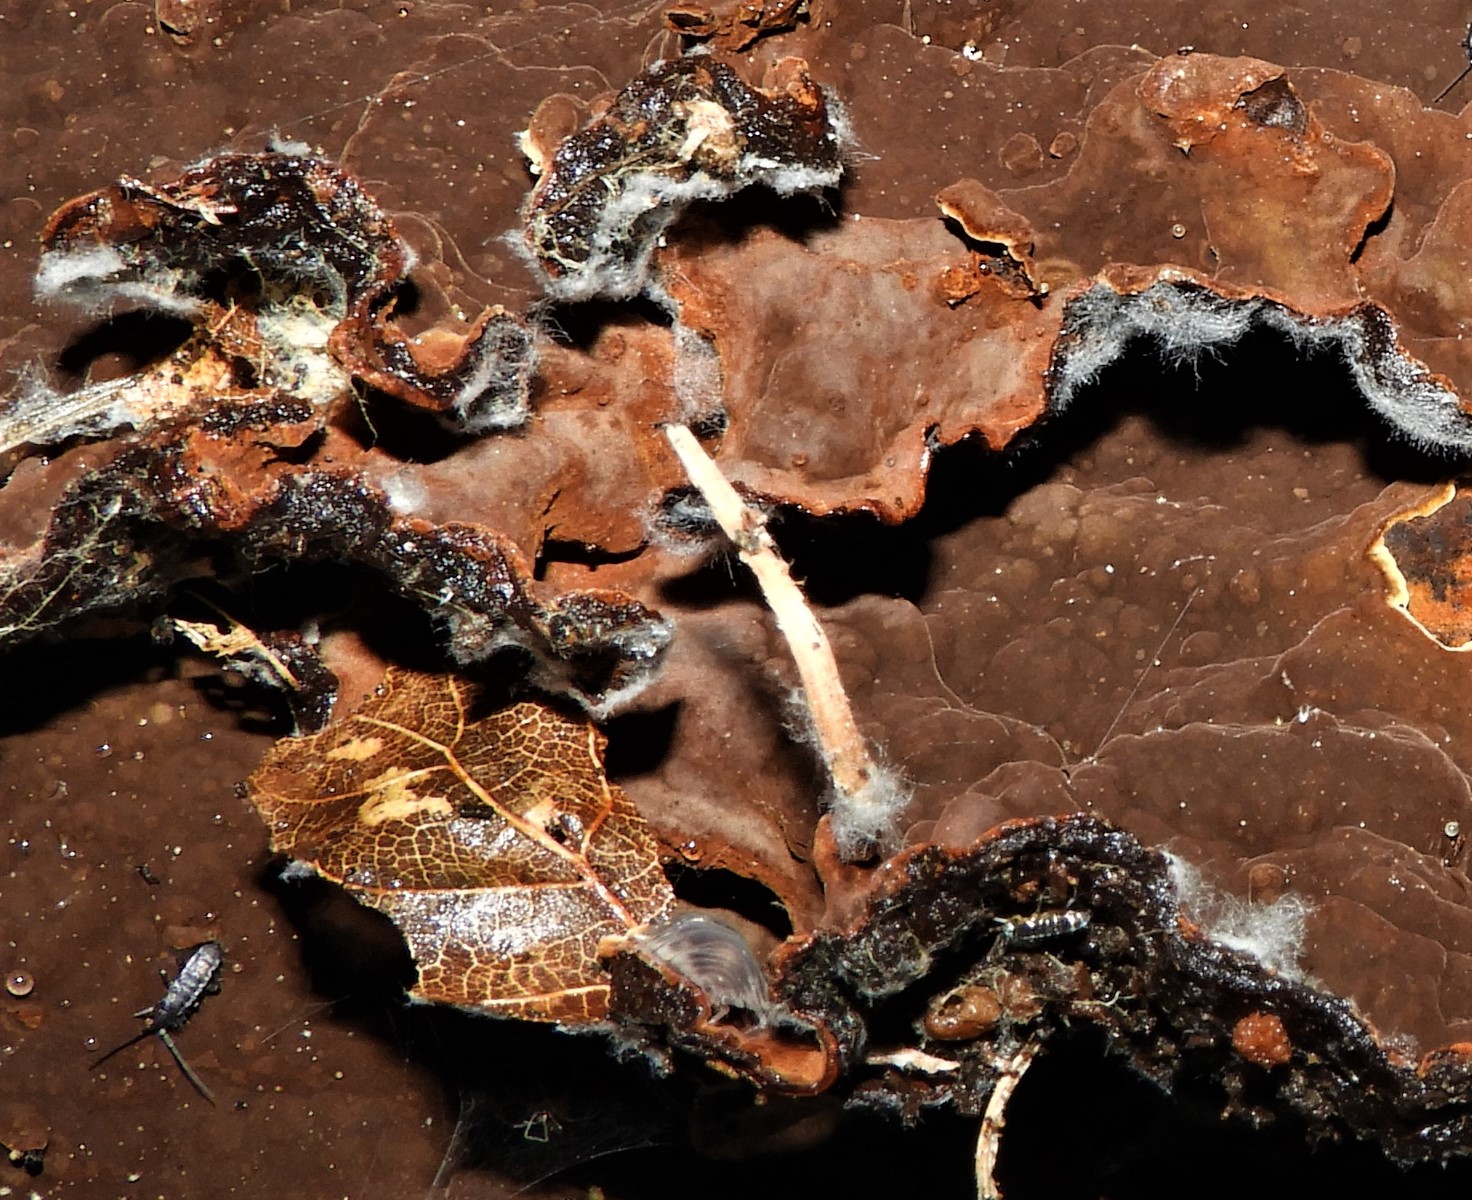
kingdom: Fungi
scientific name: Fungi
